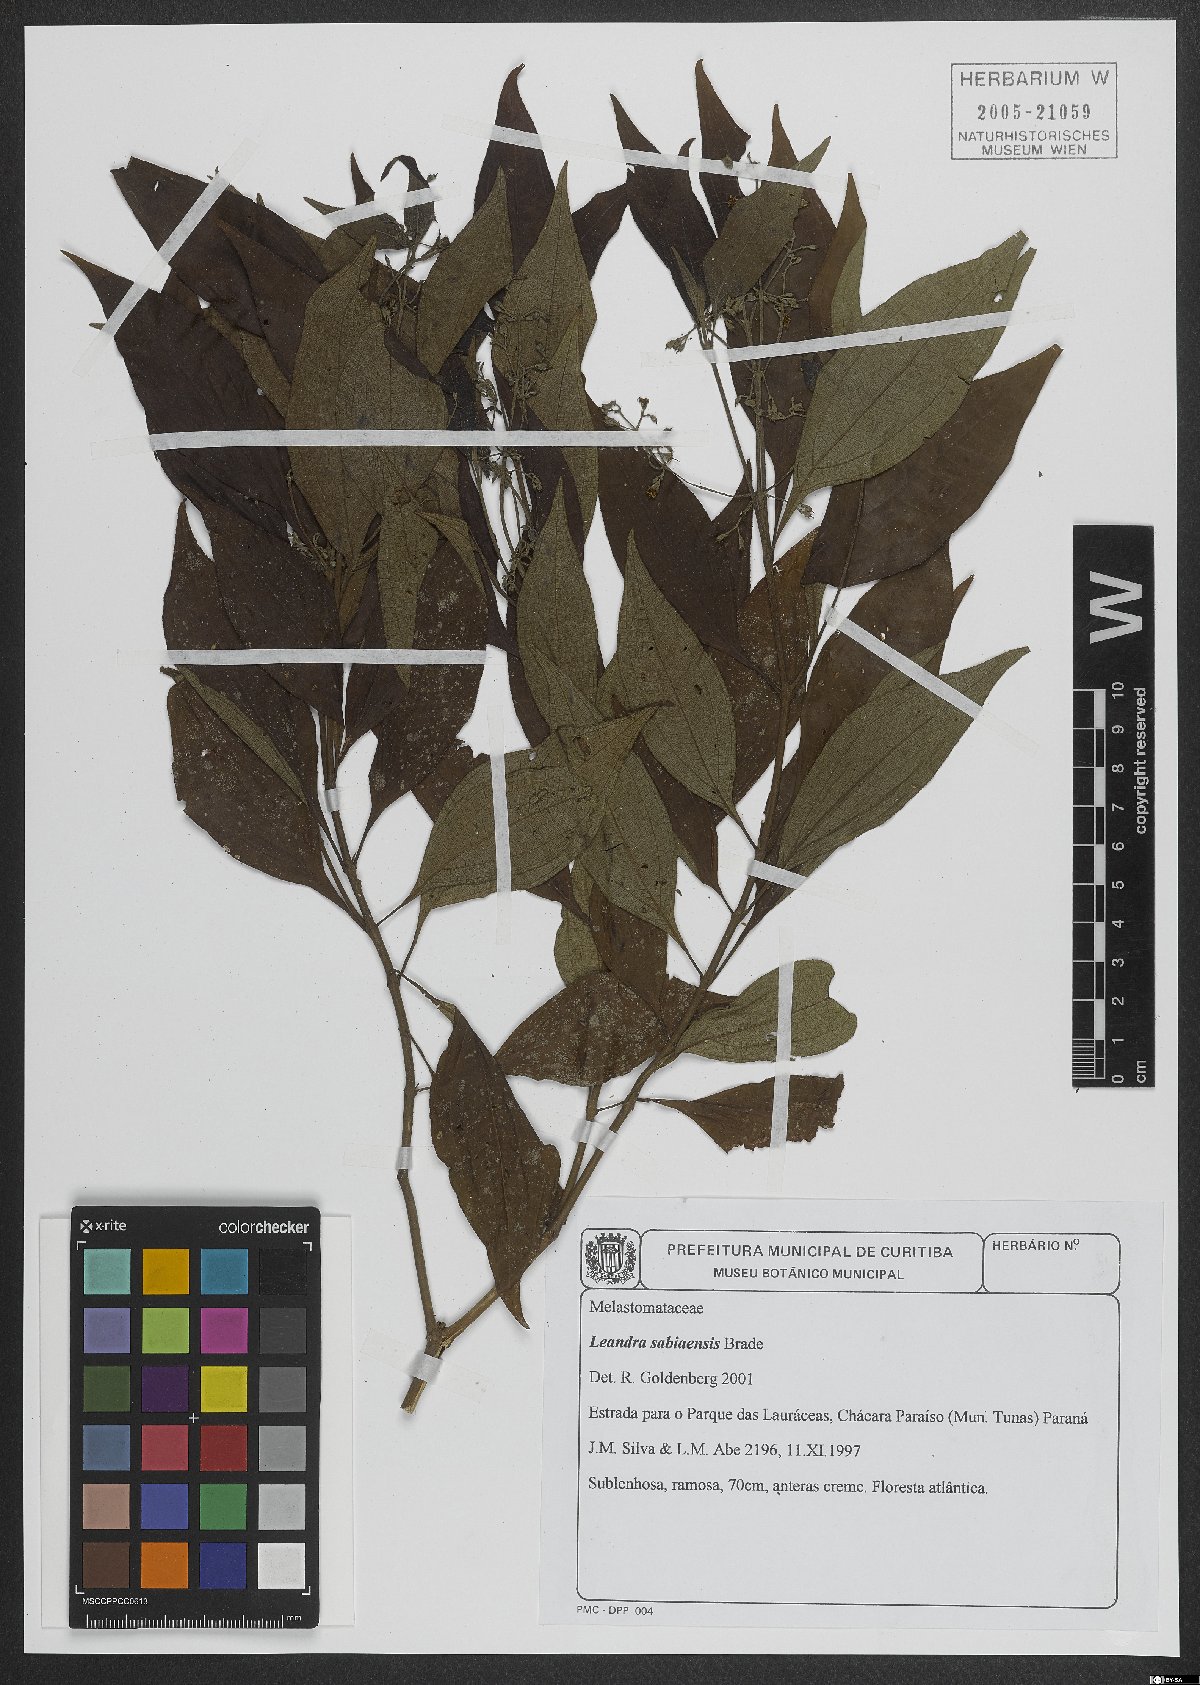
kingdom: Plantae
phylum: Tracheophyta
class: Magnoliopsida
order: Myrtales
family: Melastomataceae
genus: Miconia
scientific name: Miconia sabiaensis
